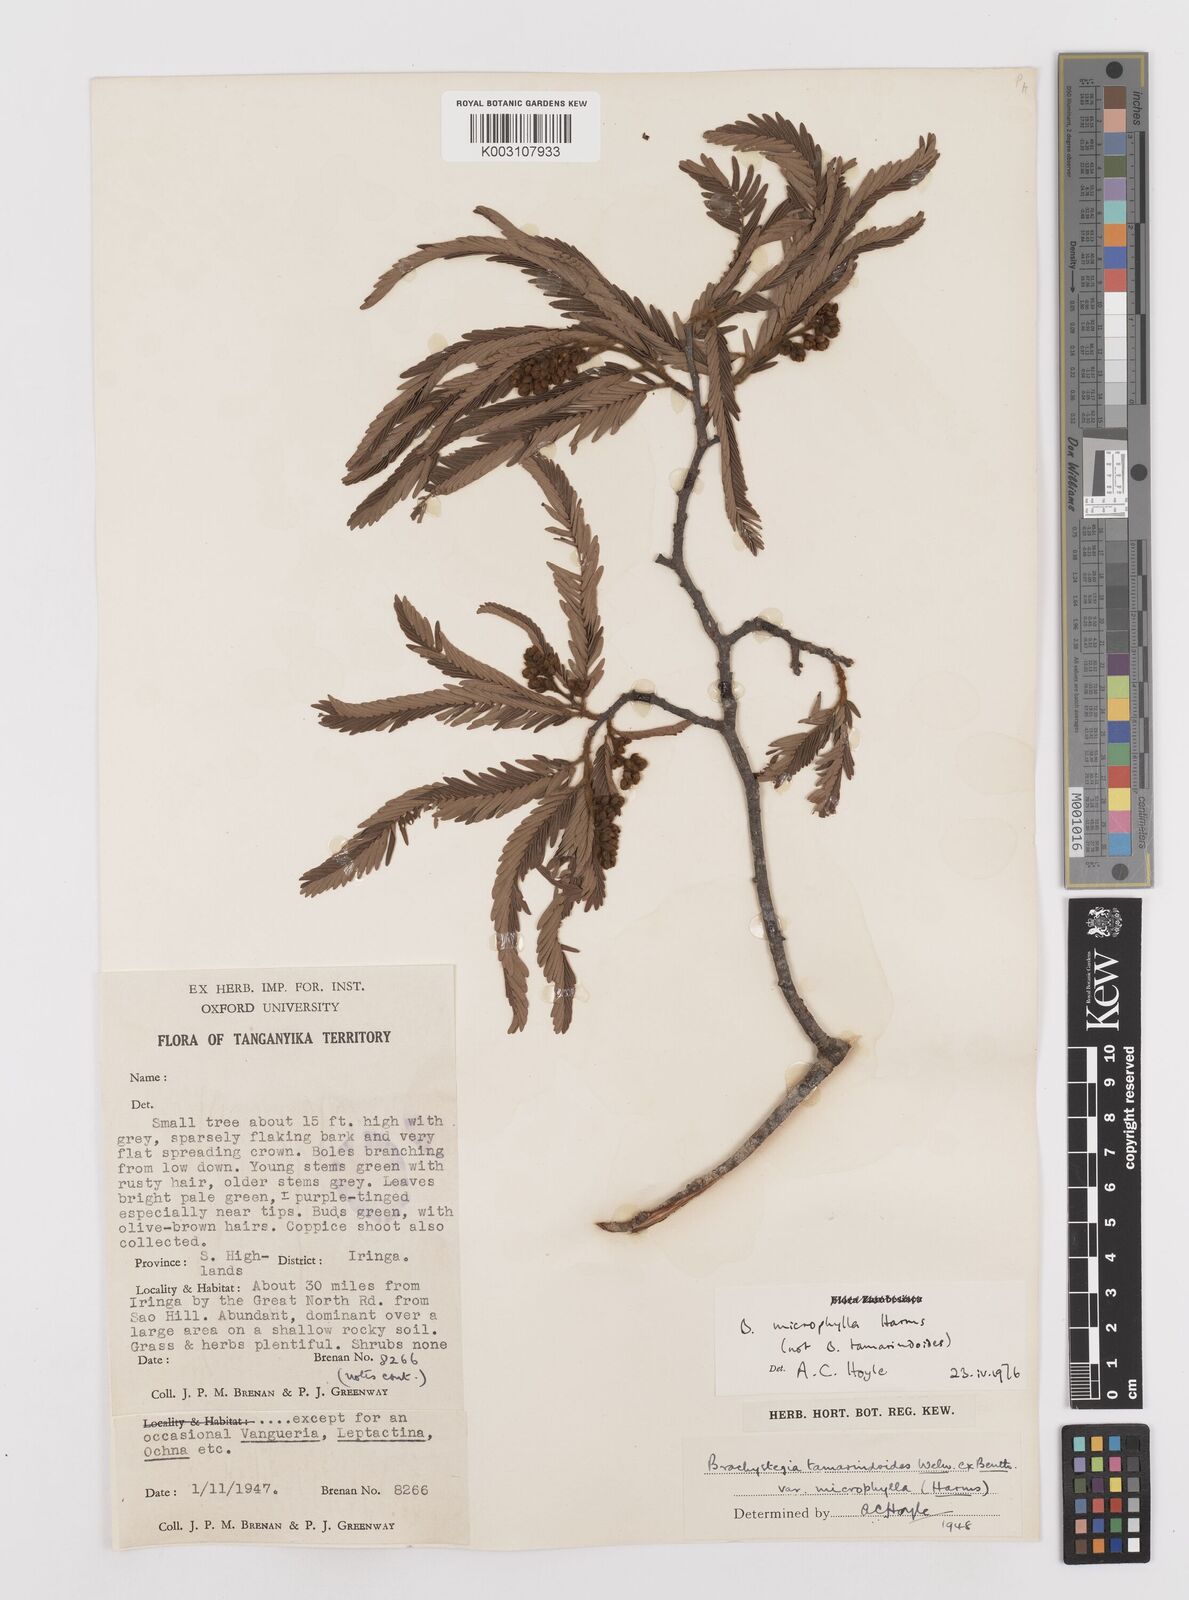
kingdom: Plantae
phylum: Tracheophyta
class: Magnoliopsida
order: Fabales
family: Fabaceae
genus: Brachystegia
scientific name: Brachystegia
